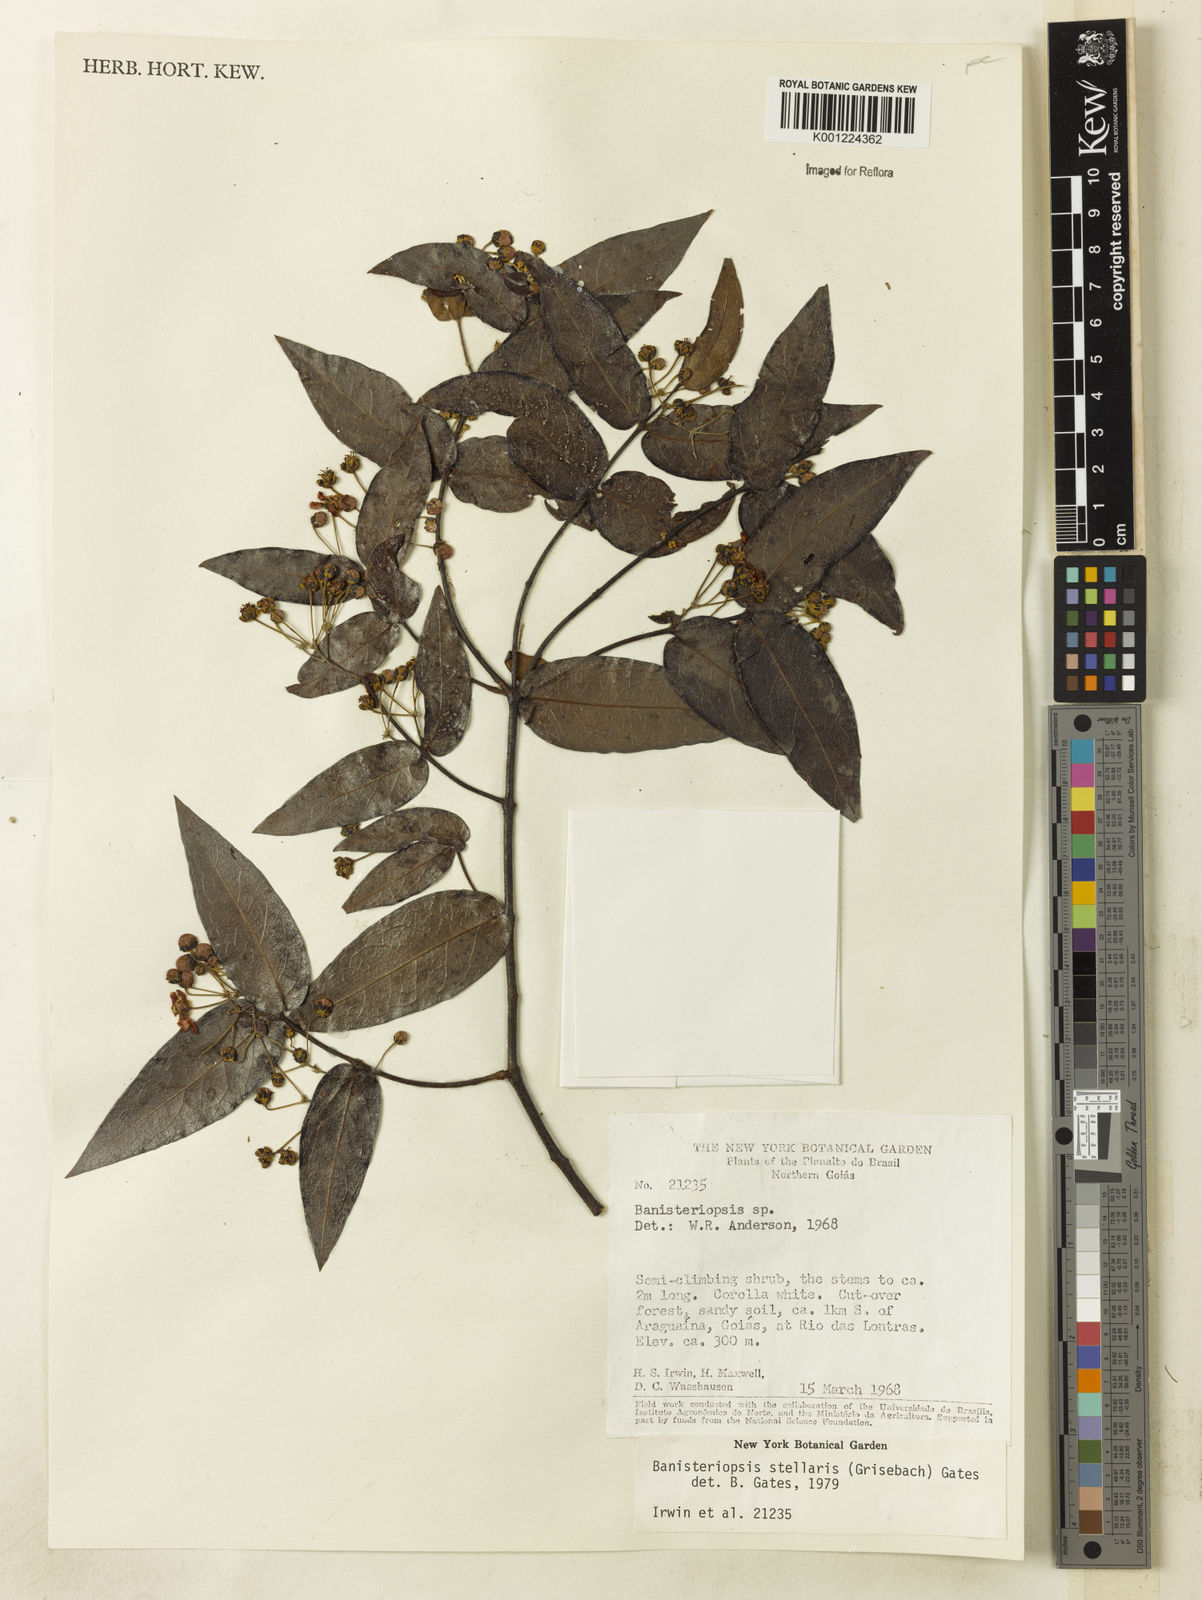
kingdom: Plantae
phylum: Tracheophyta
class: Magnoliopsida
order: Malpighiales
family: Malpighiaceae
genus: Banisteriopsis
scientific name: Banisteriopsis stellaris
